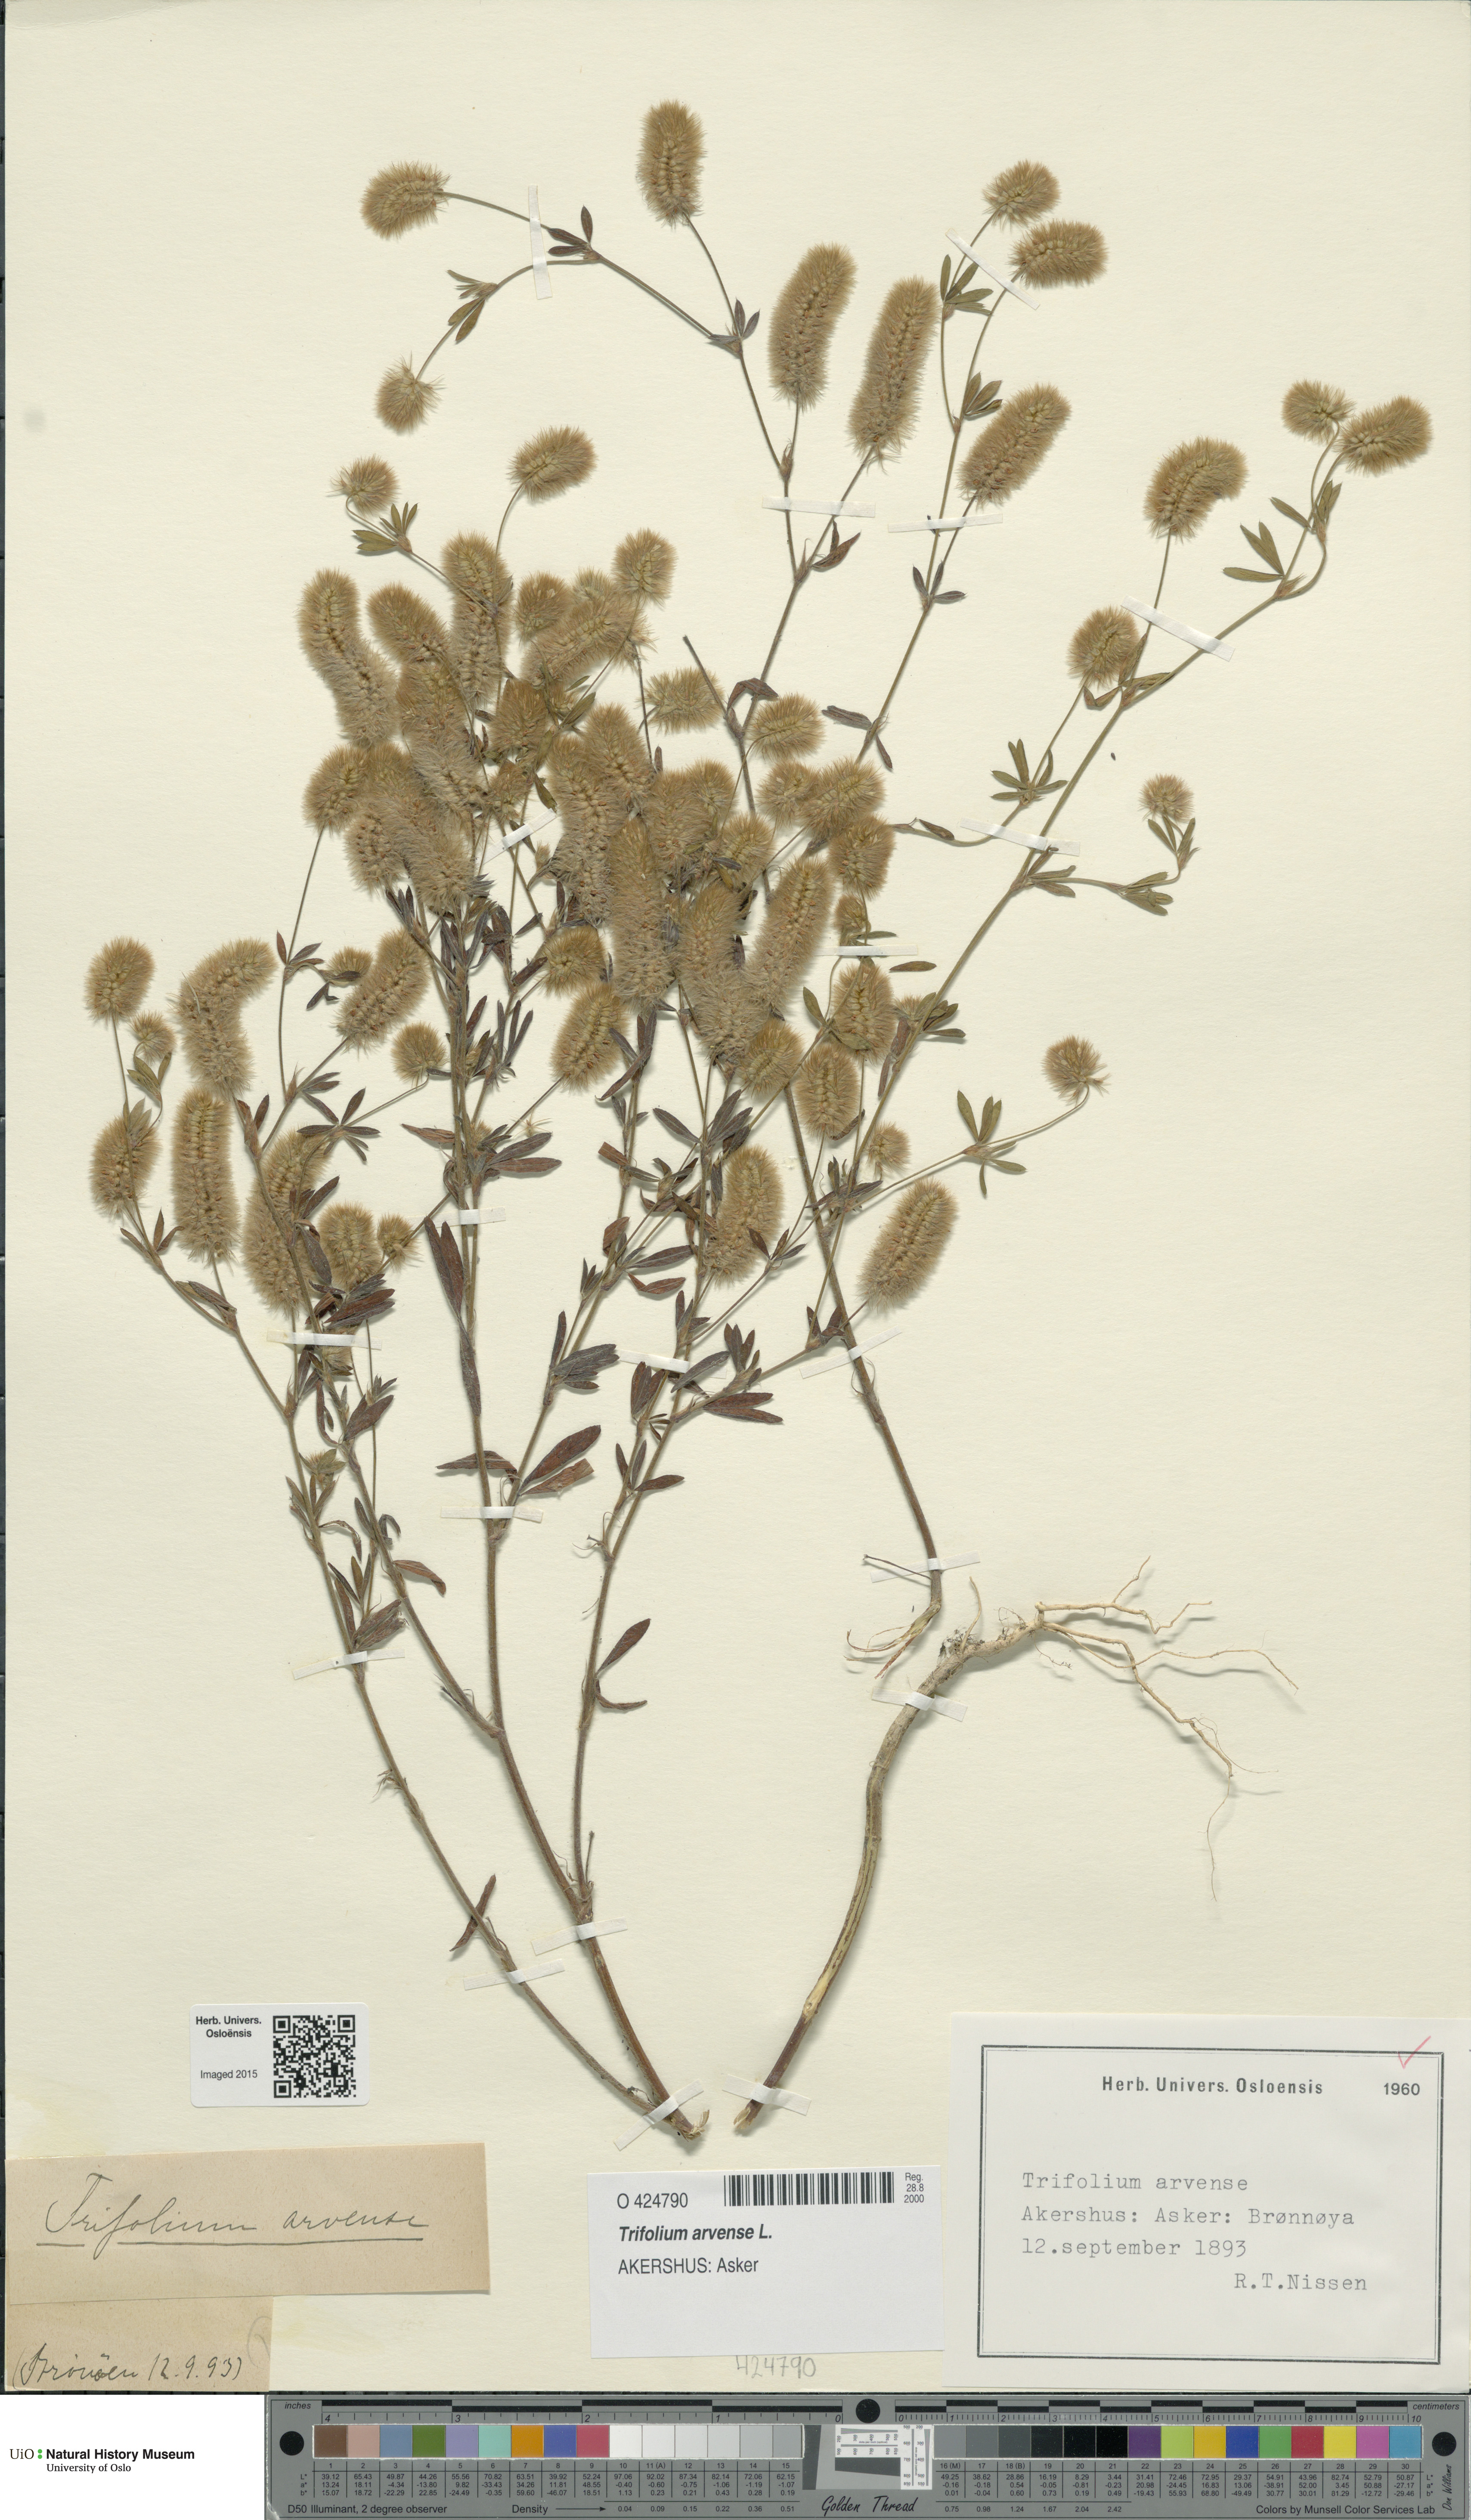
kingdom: Plantae
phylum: Tracheophyta
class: Magnoliopsida
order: Fabales
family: Fabaceae
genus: Trifolium
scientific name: Trifolium arvense
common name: Hare's-foot clover
